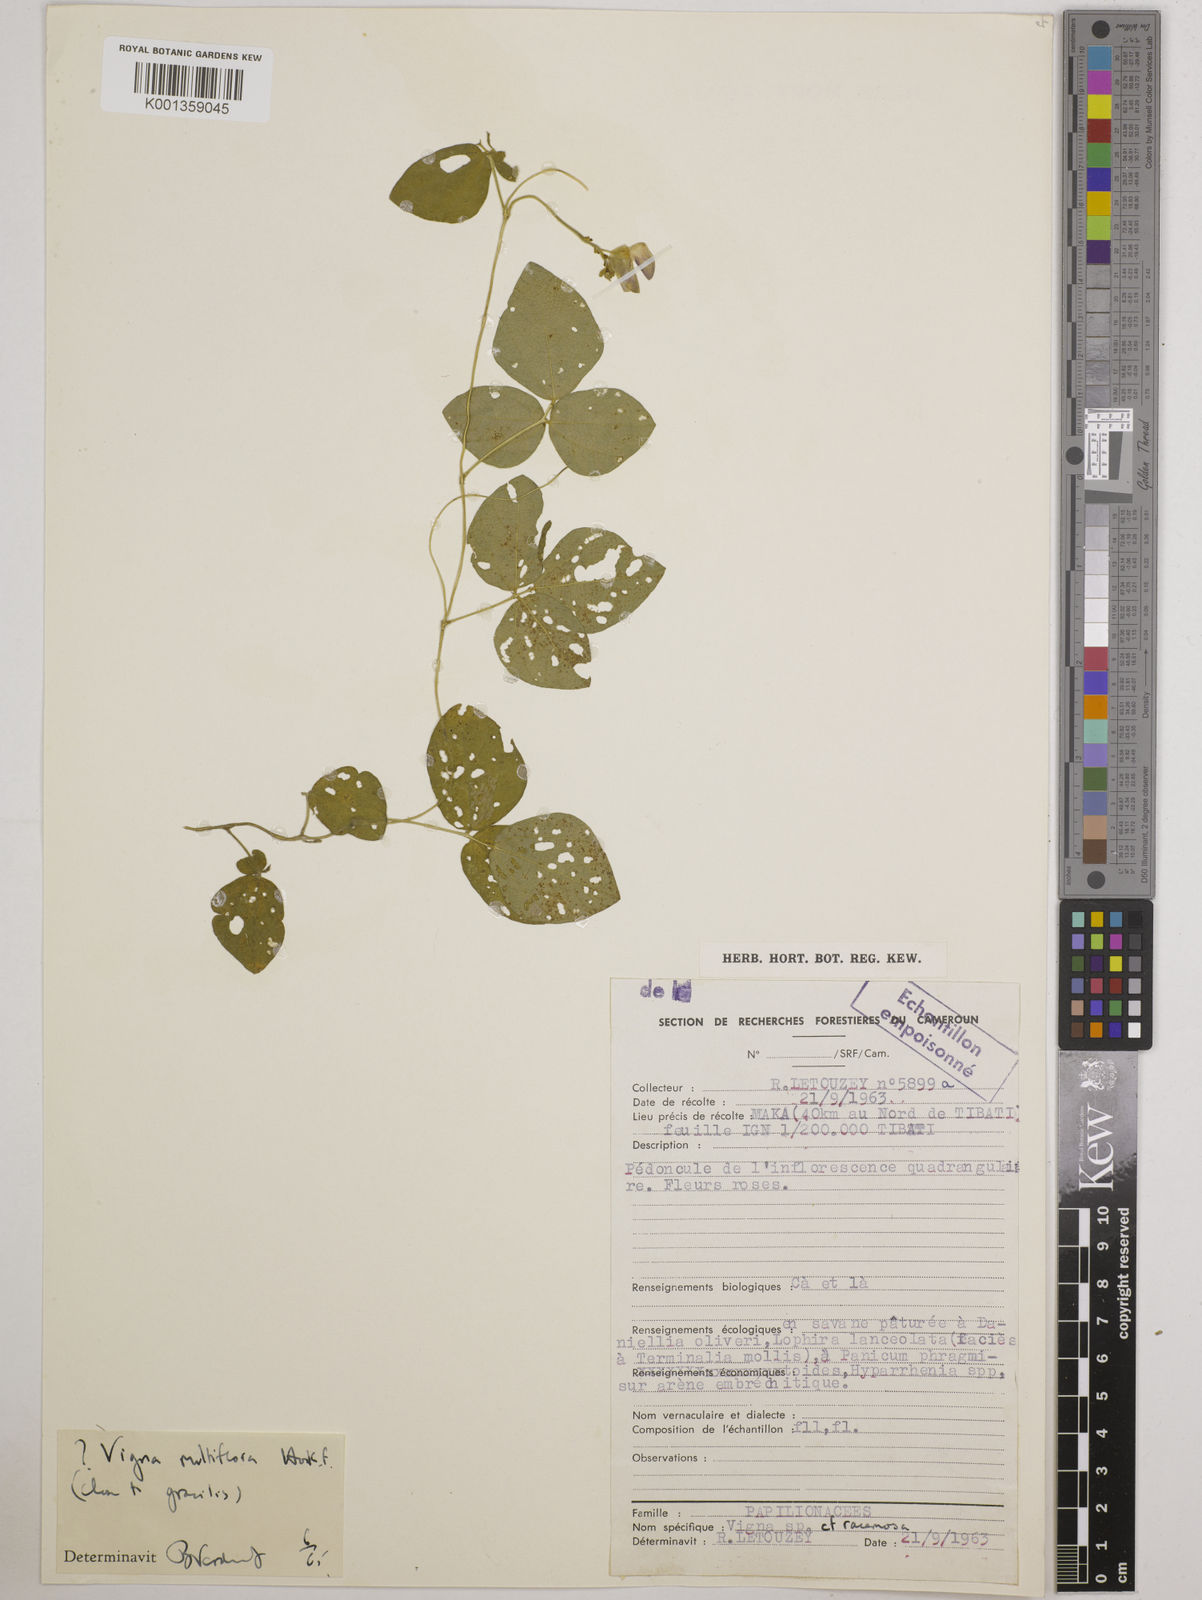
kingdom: Plantae
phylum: Tracheophyta
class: Magnoliopsida
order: Fabales
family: Fabaceae
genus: Vigna
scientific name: Vigna gracilis
